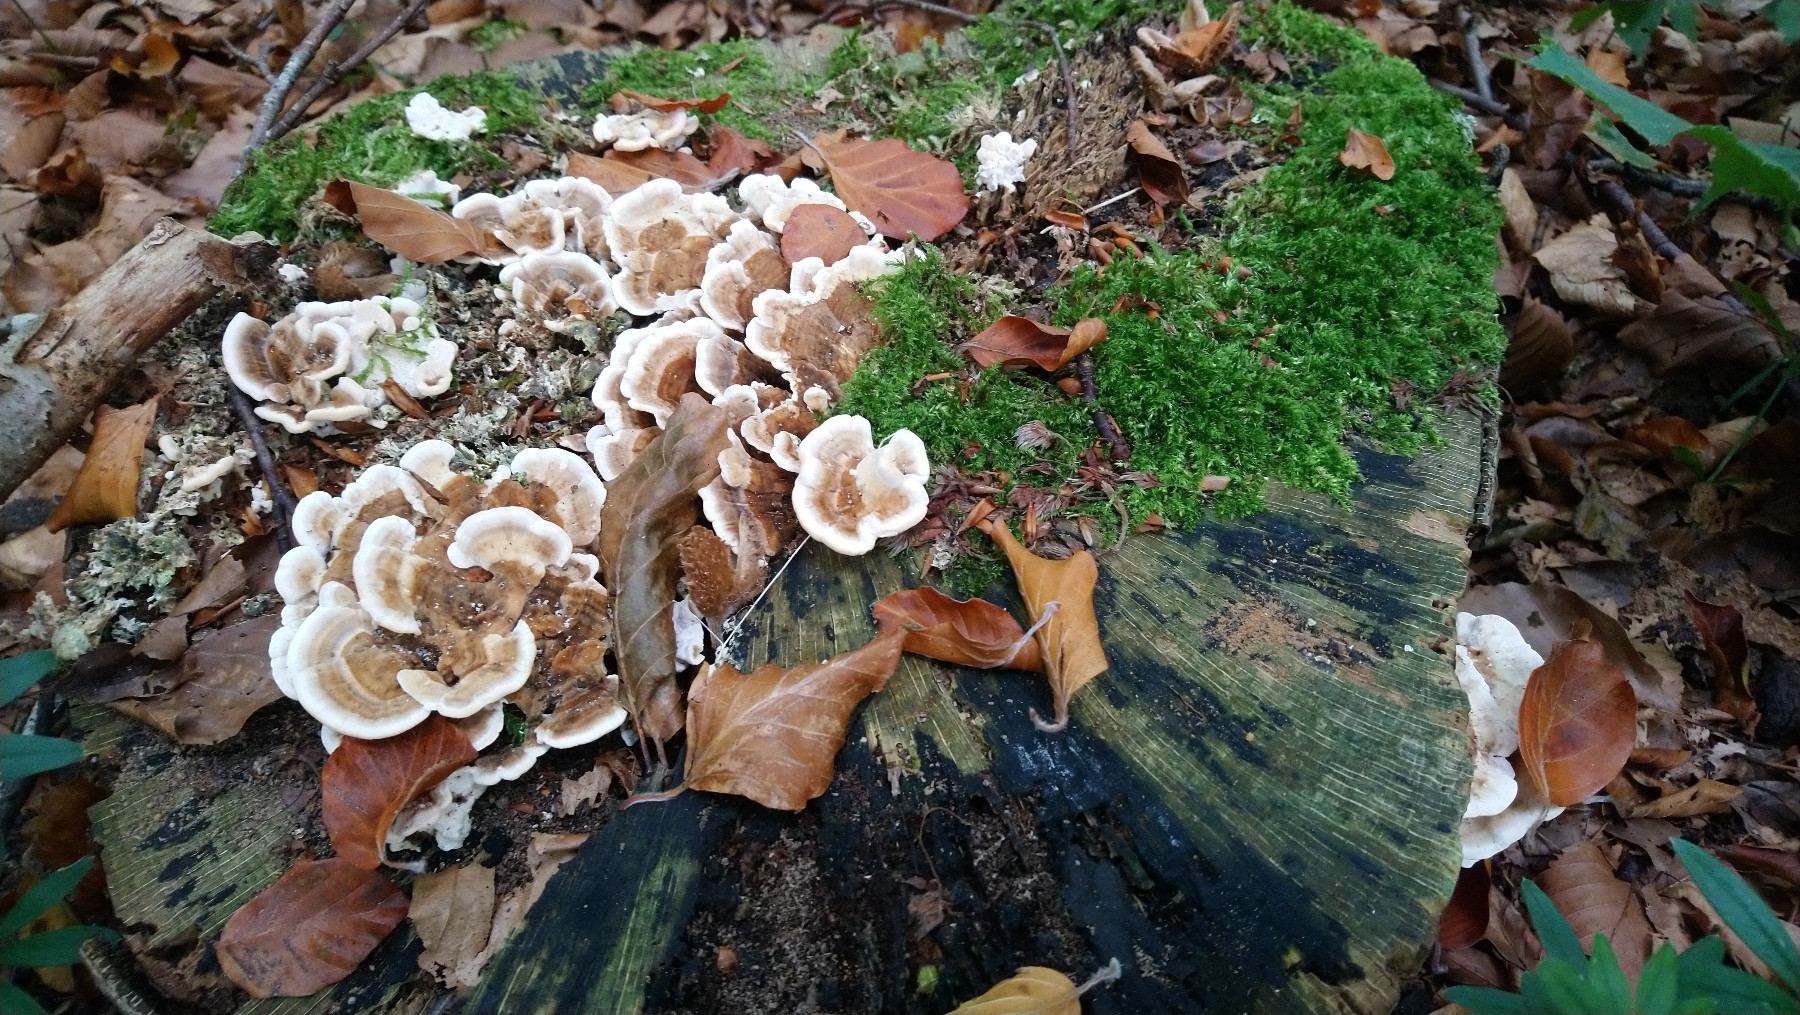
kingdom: Fungi
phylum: Basidiomycota
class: Agaricomycetes
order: Polyporales
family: Polyporaceae
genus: Trametes
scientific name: Trametes versicolor
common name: broget læderporesvamp
